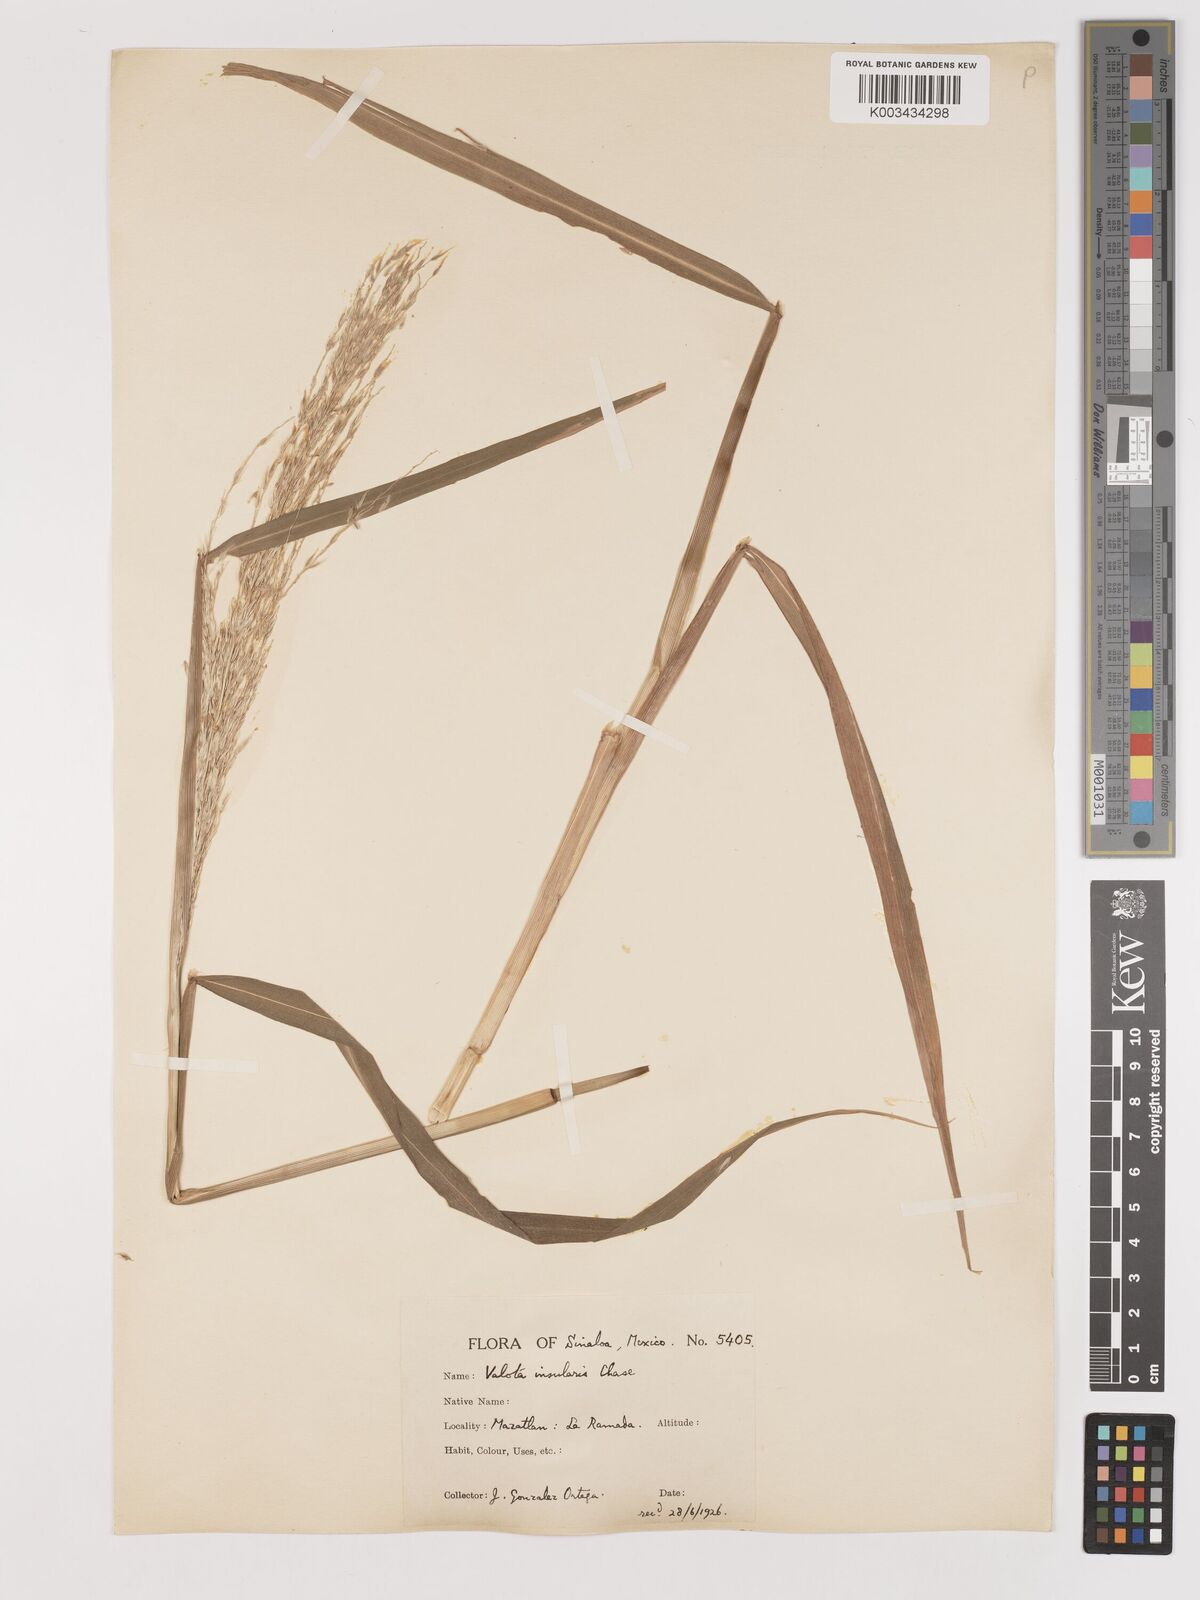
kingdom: Plantae
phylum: Tracheophyta
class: Liliopsida
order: Poales
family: Poaceae
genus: Digitaria
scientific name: Digitaria insularis
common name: Sourgrass
